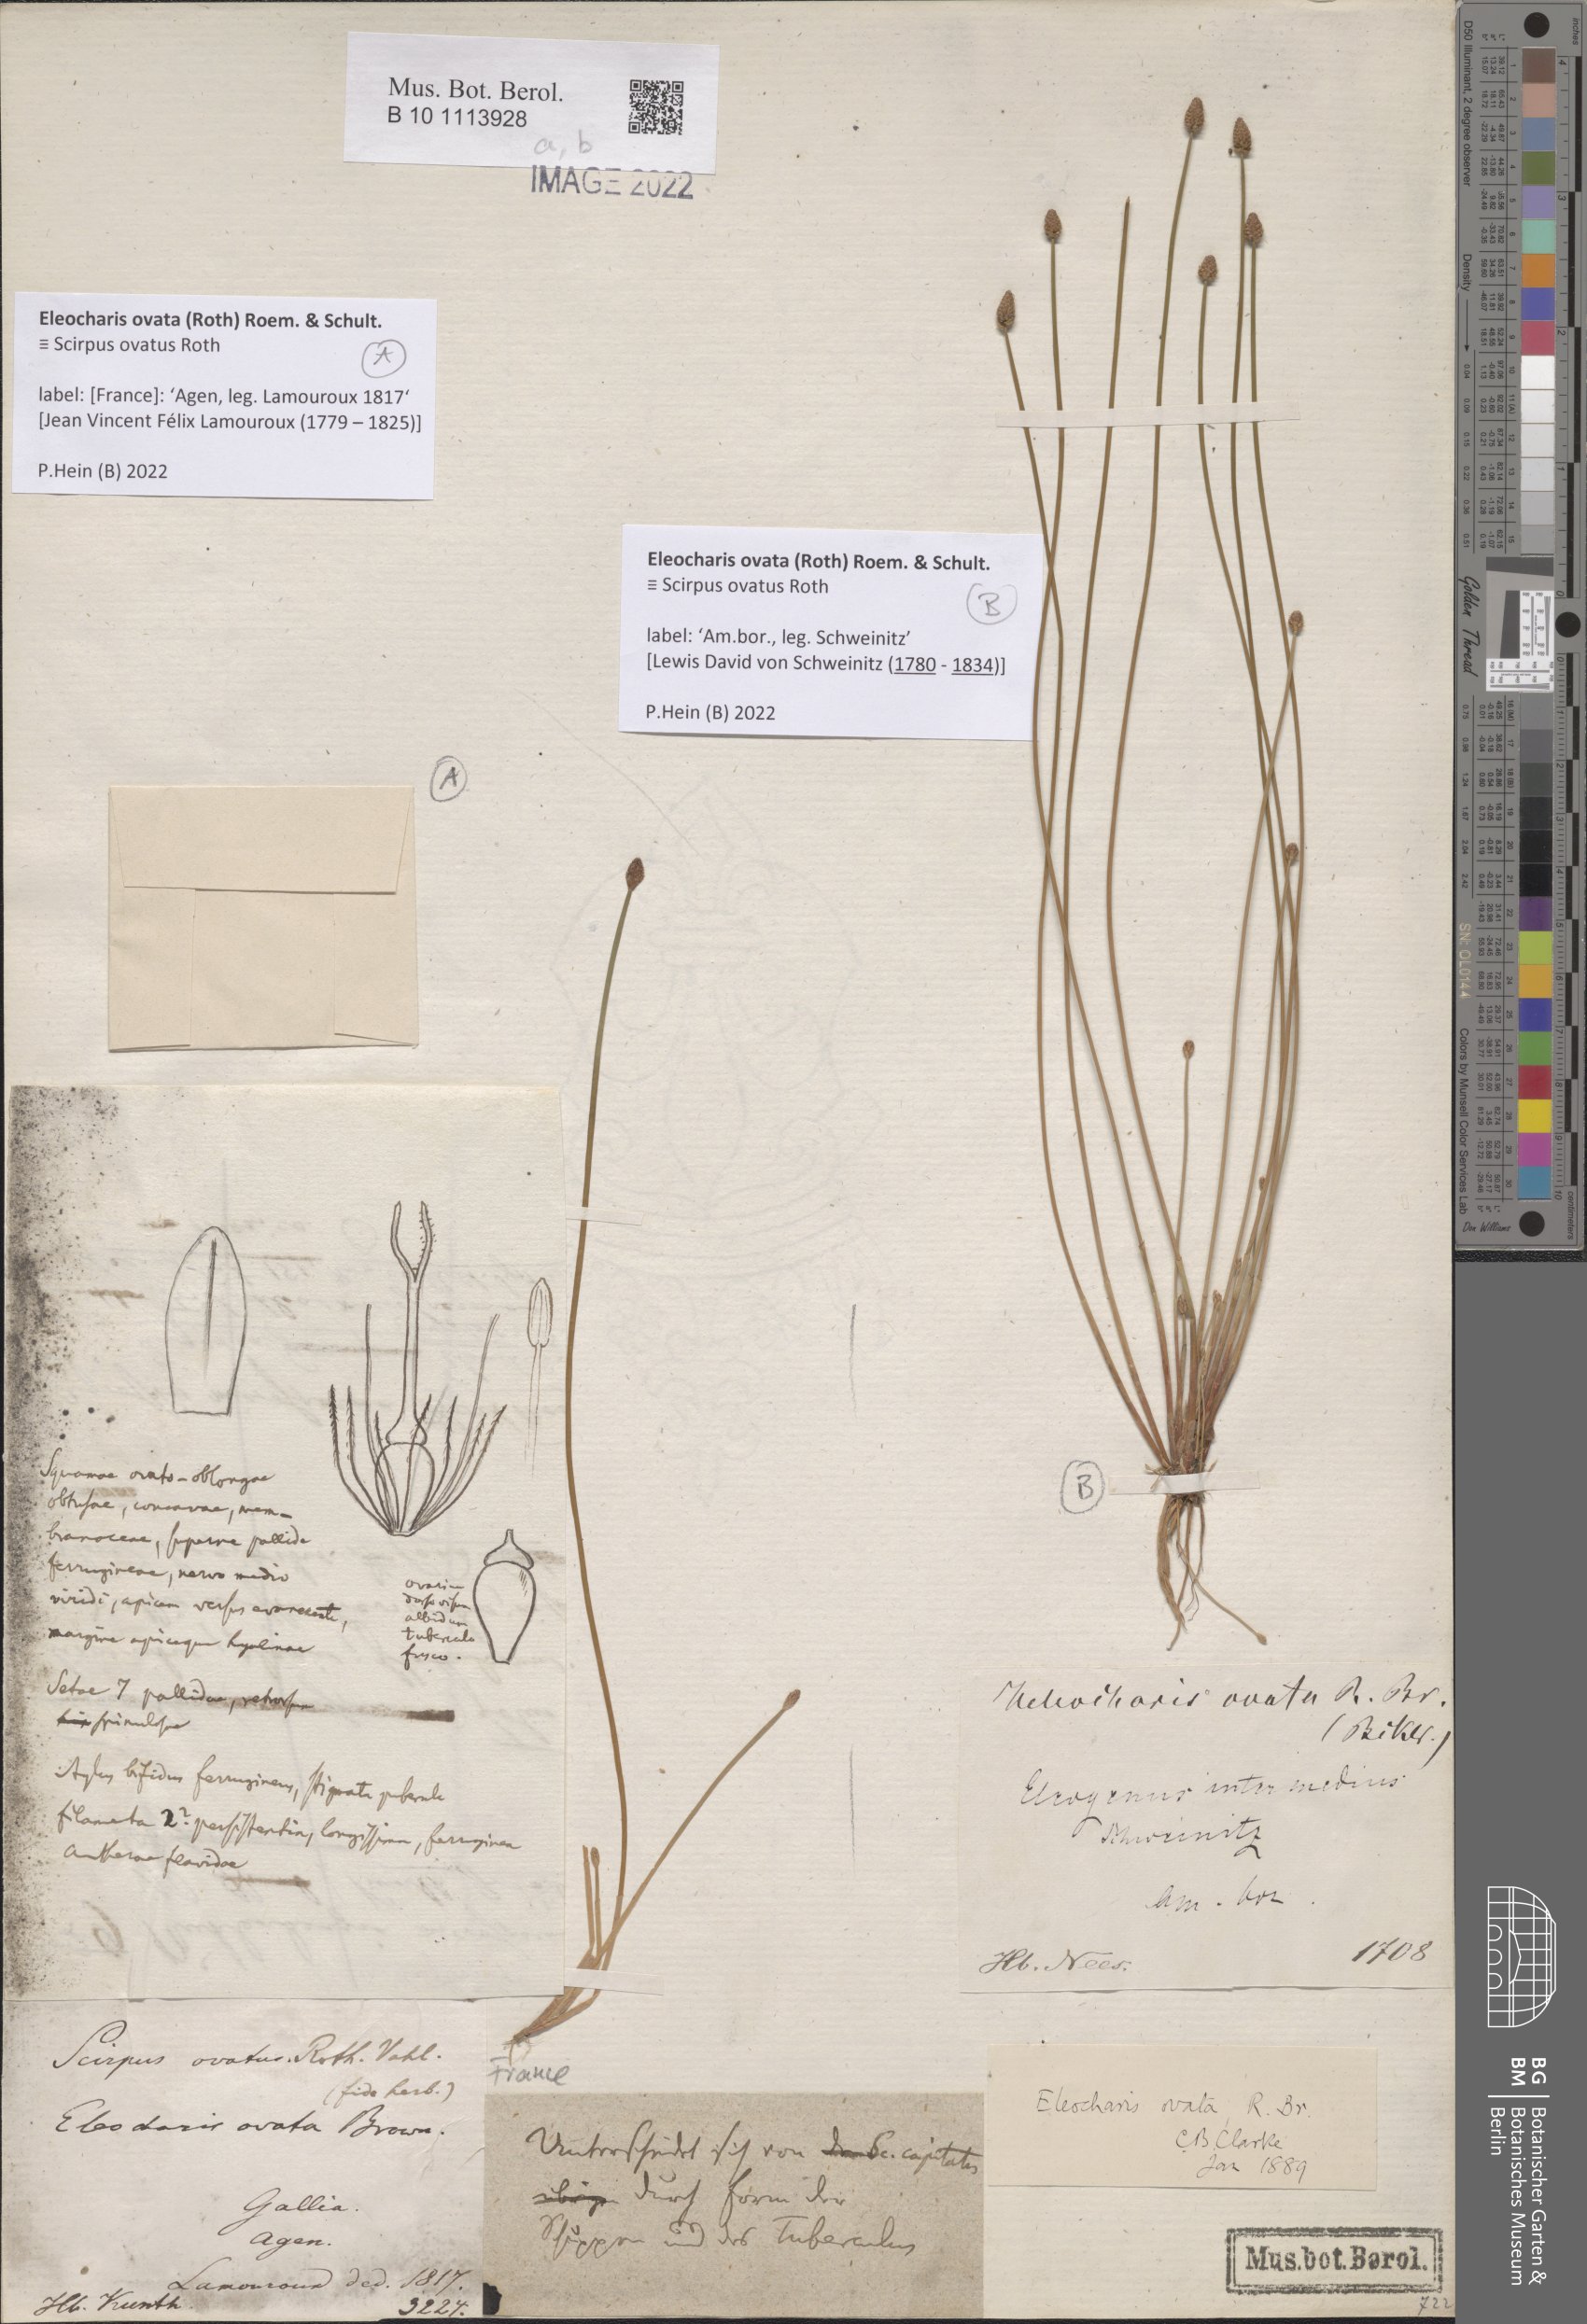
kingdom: Plantae
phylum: Tracheophyta
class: Liliopsida
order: Poales
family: Cyperaceae
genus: Eleocharis
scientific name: Eleocharis ovata
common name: Oval spike-rush
